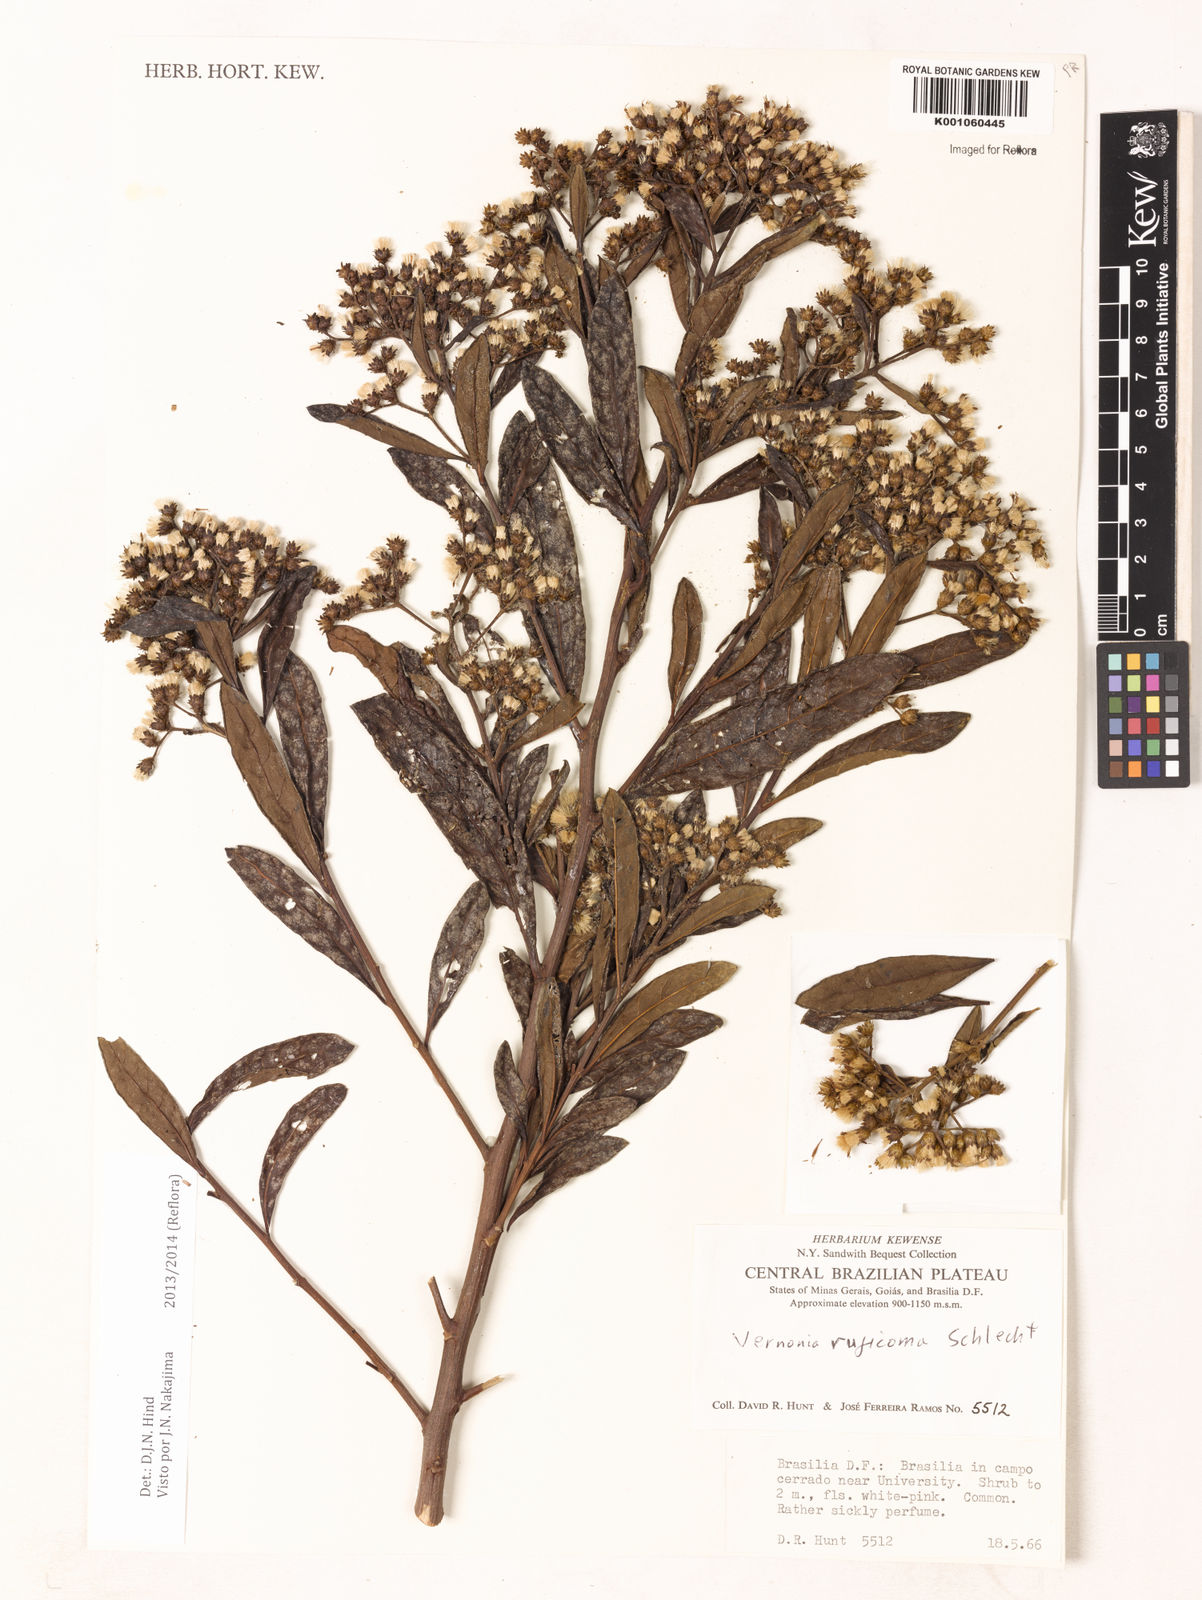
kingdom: Plantae
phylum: Tracheophyta
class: Magnoliopsida
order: Asterales
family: Asteraceae
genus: Vernonia
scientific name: Vernonia
